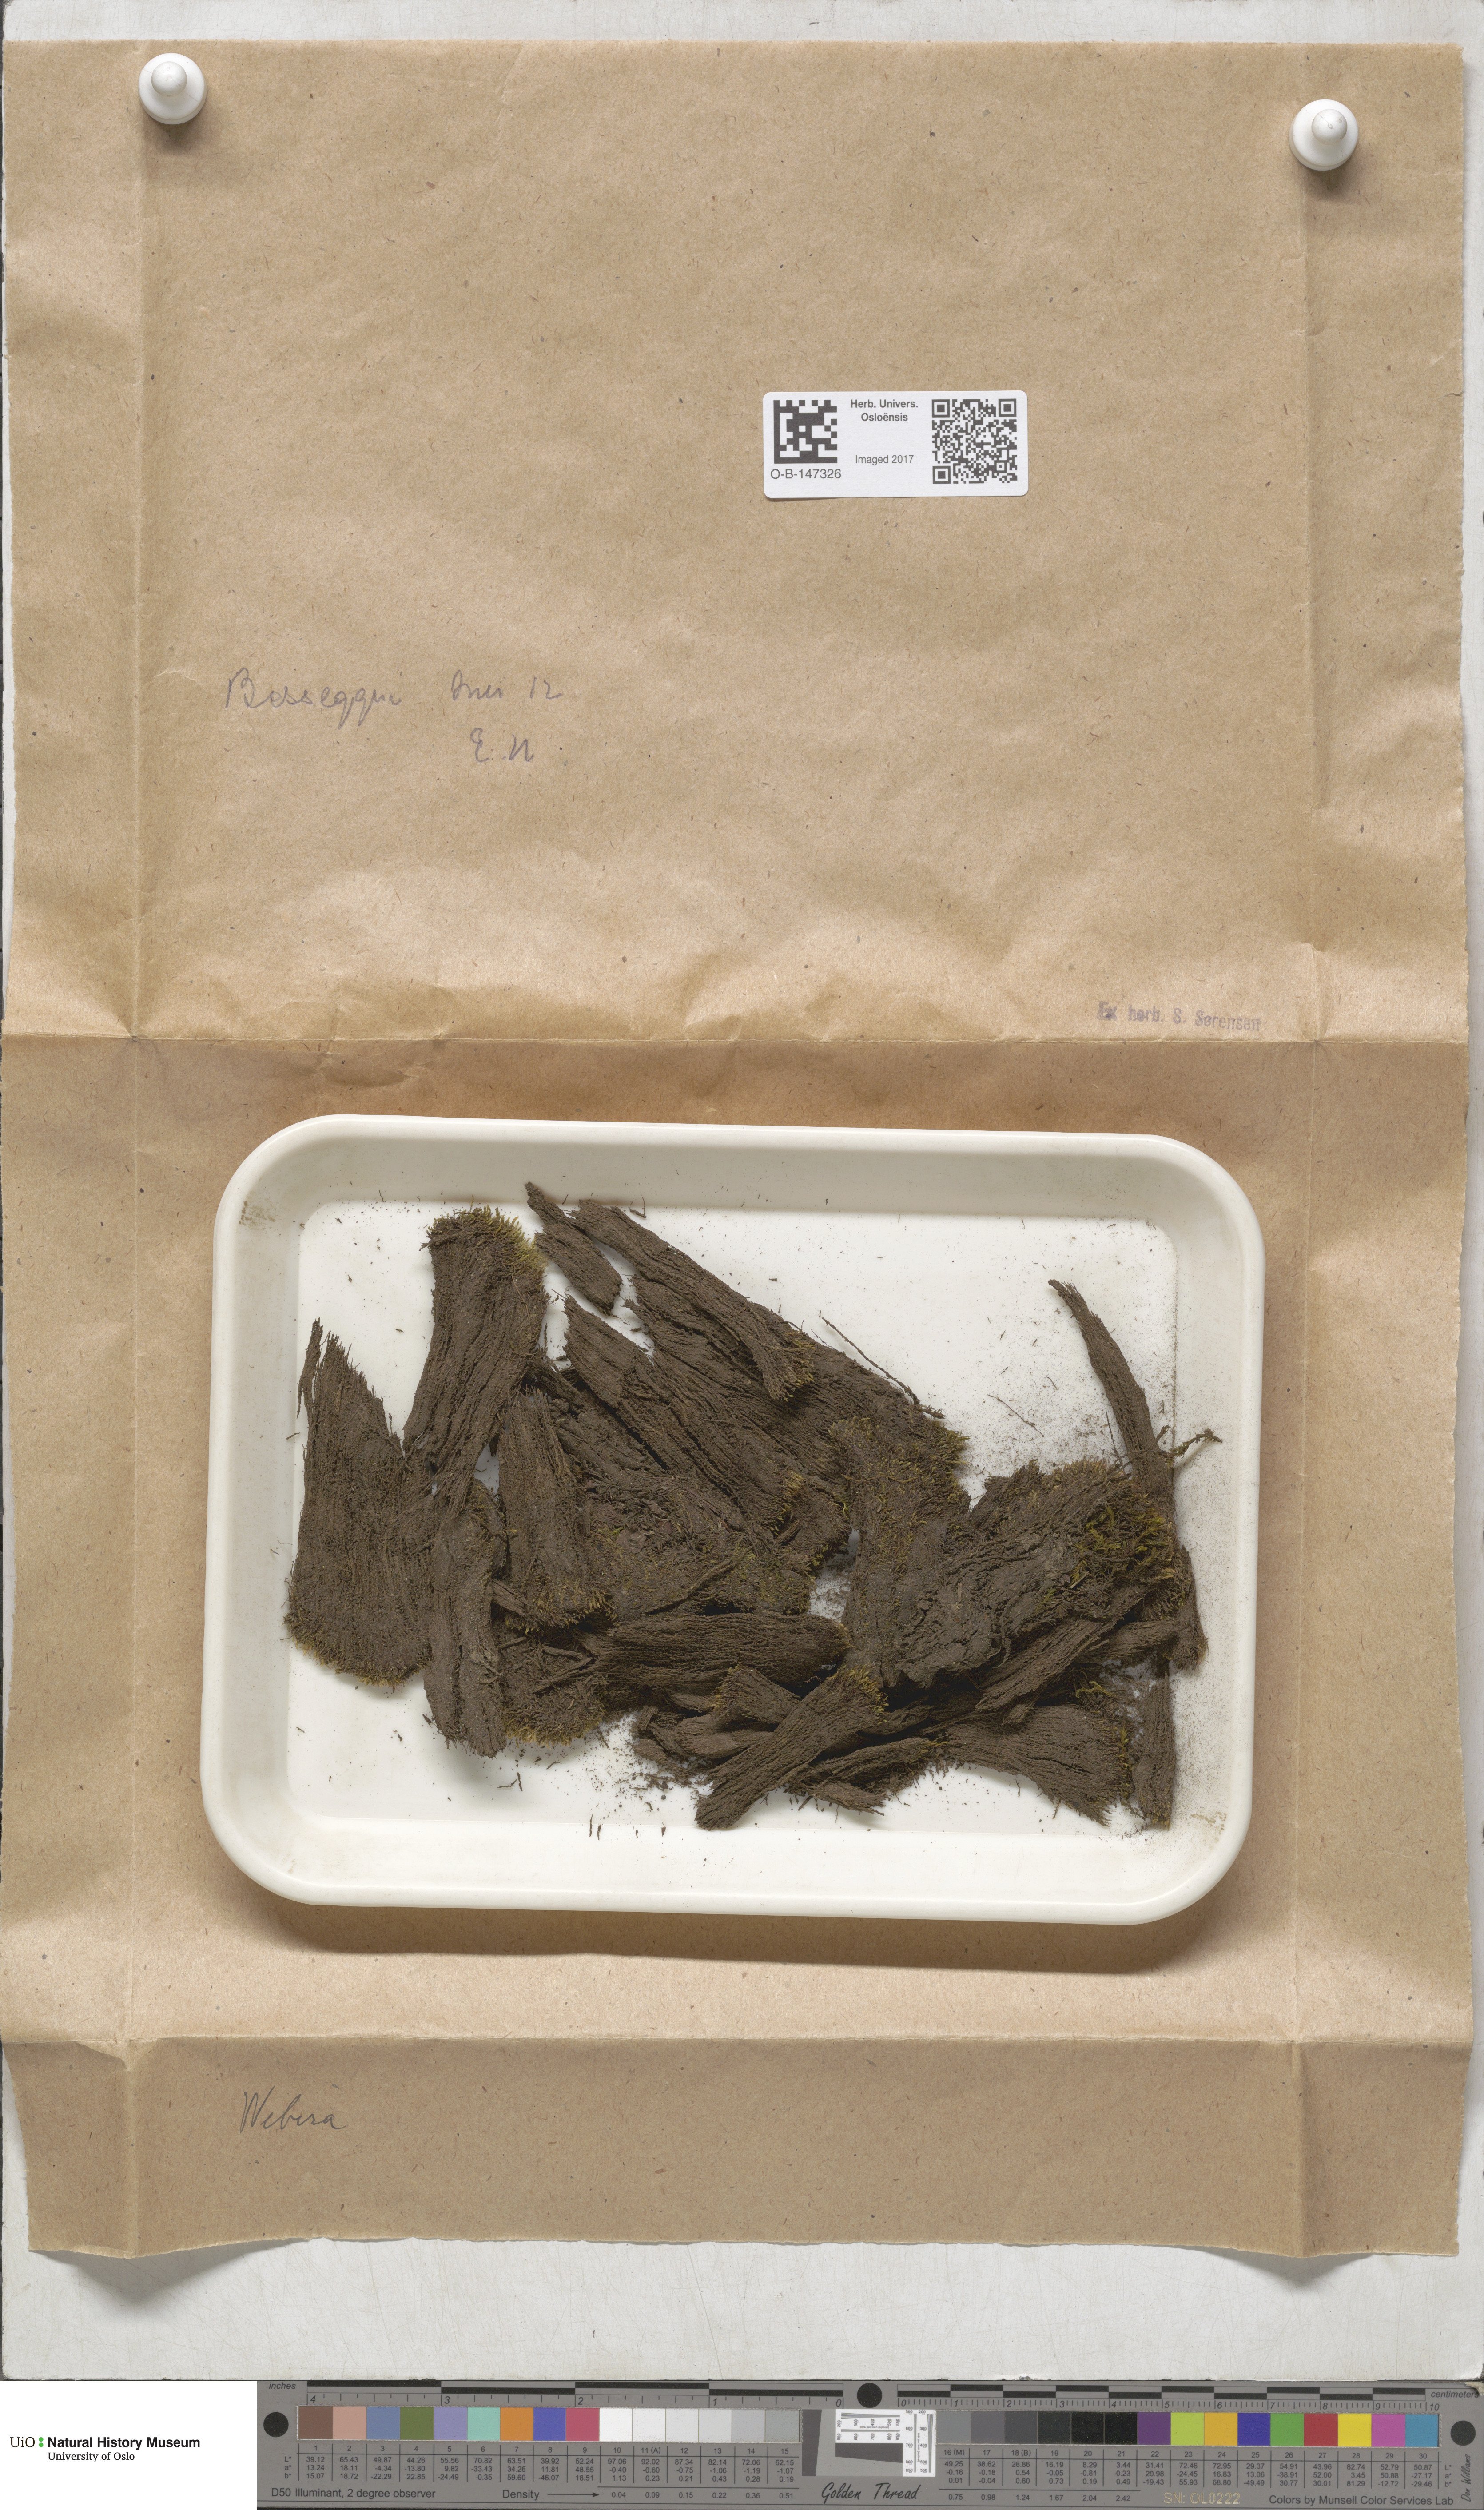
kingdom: Plantae
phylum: Bryophyta
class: Bryopsida
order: Bryales
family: Mniaceae
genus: Pohlia
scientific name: Pohlia
